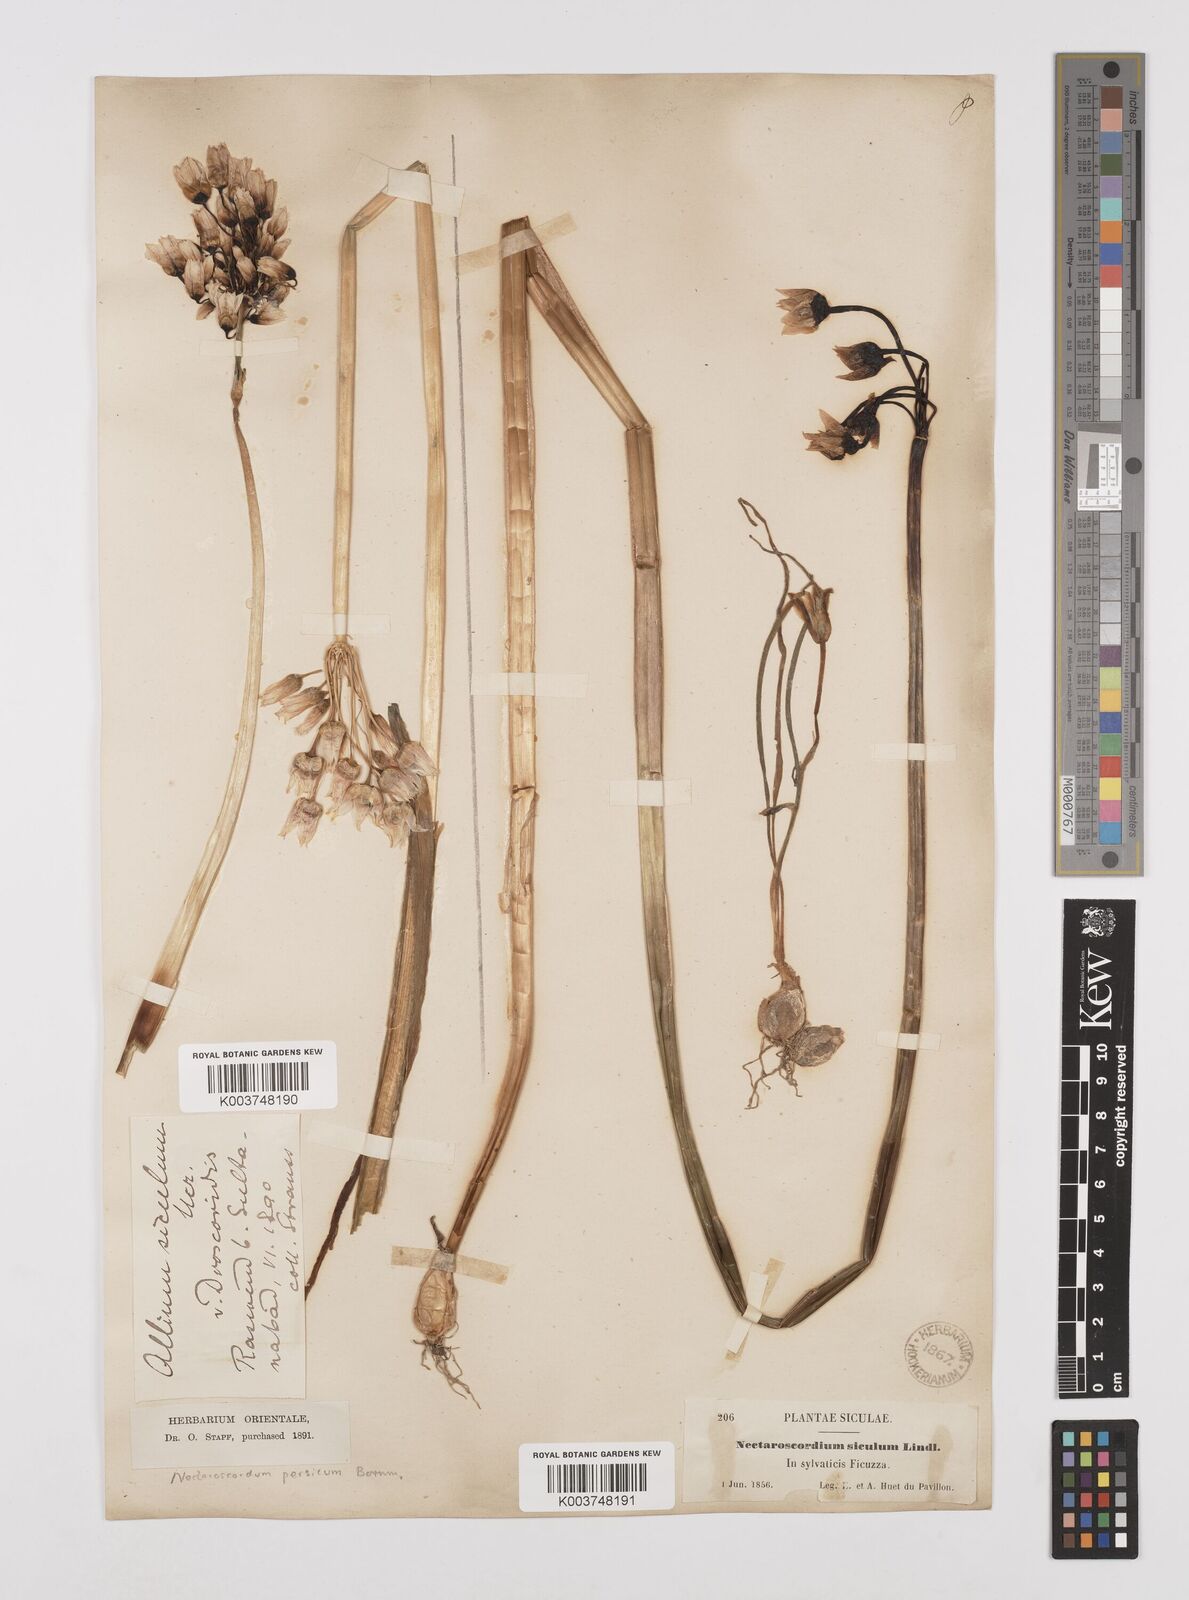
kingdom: Plantae
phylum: Tracheophyta
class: Liliopsida
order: Asparagales
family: Amaryllidaceae
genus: Allium
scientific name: Allium siculum
